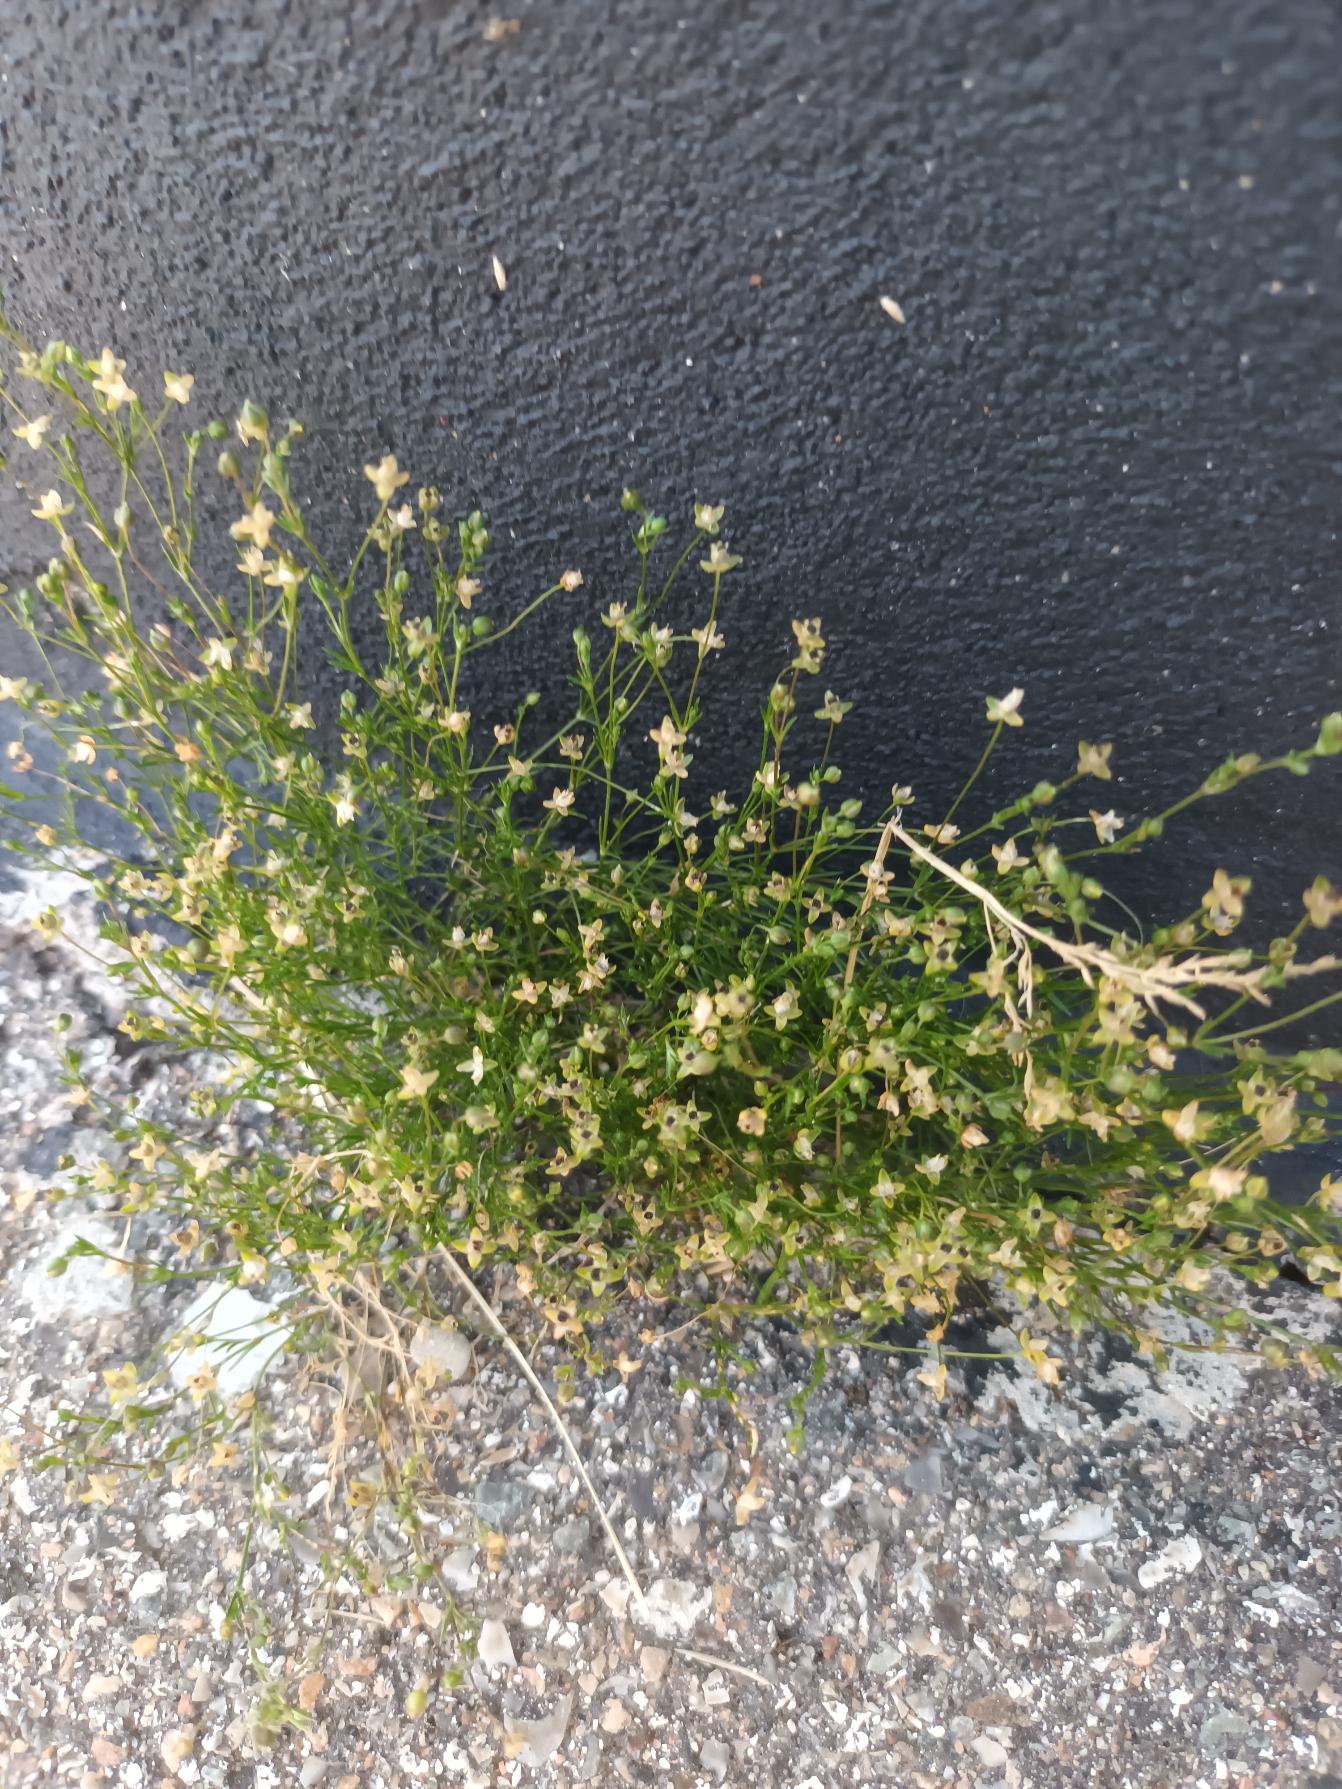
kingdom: Plantae
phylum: Tracheophyta
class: Magnoliopsida
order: Caryophyllales
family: Caryophyllaceae
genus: Sagina
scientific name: Sagina micropetala
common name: Håret firling
